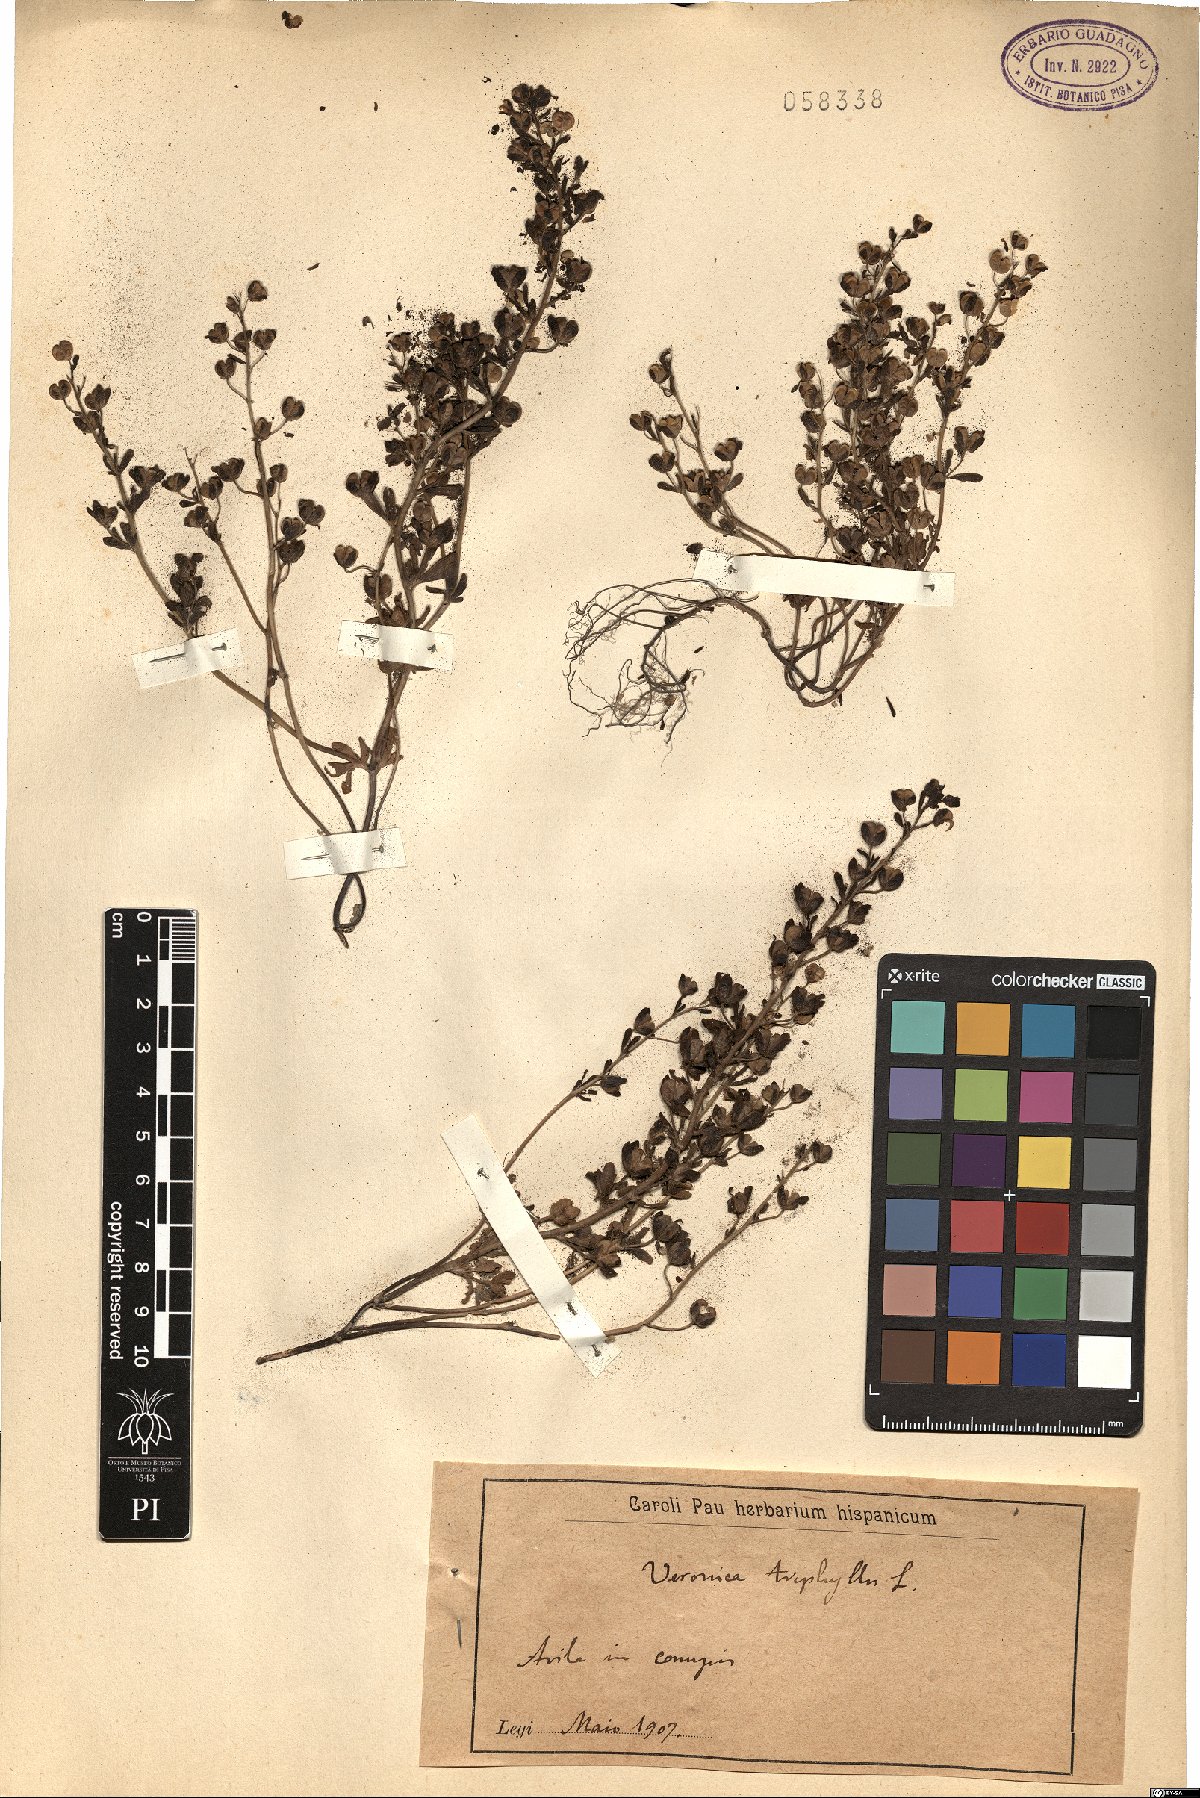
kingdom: Plantae
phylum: Tracheophyta
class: Magnoliopsida
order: Lamiales
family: Plantaginaceae
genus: Veronica
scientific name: Veronica triphyllos
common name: Fingered speedwell
